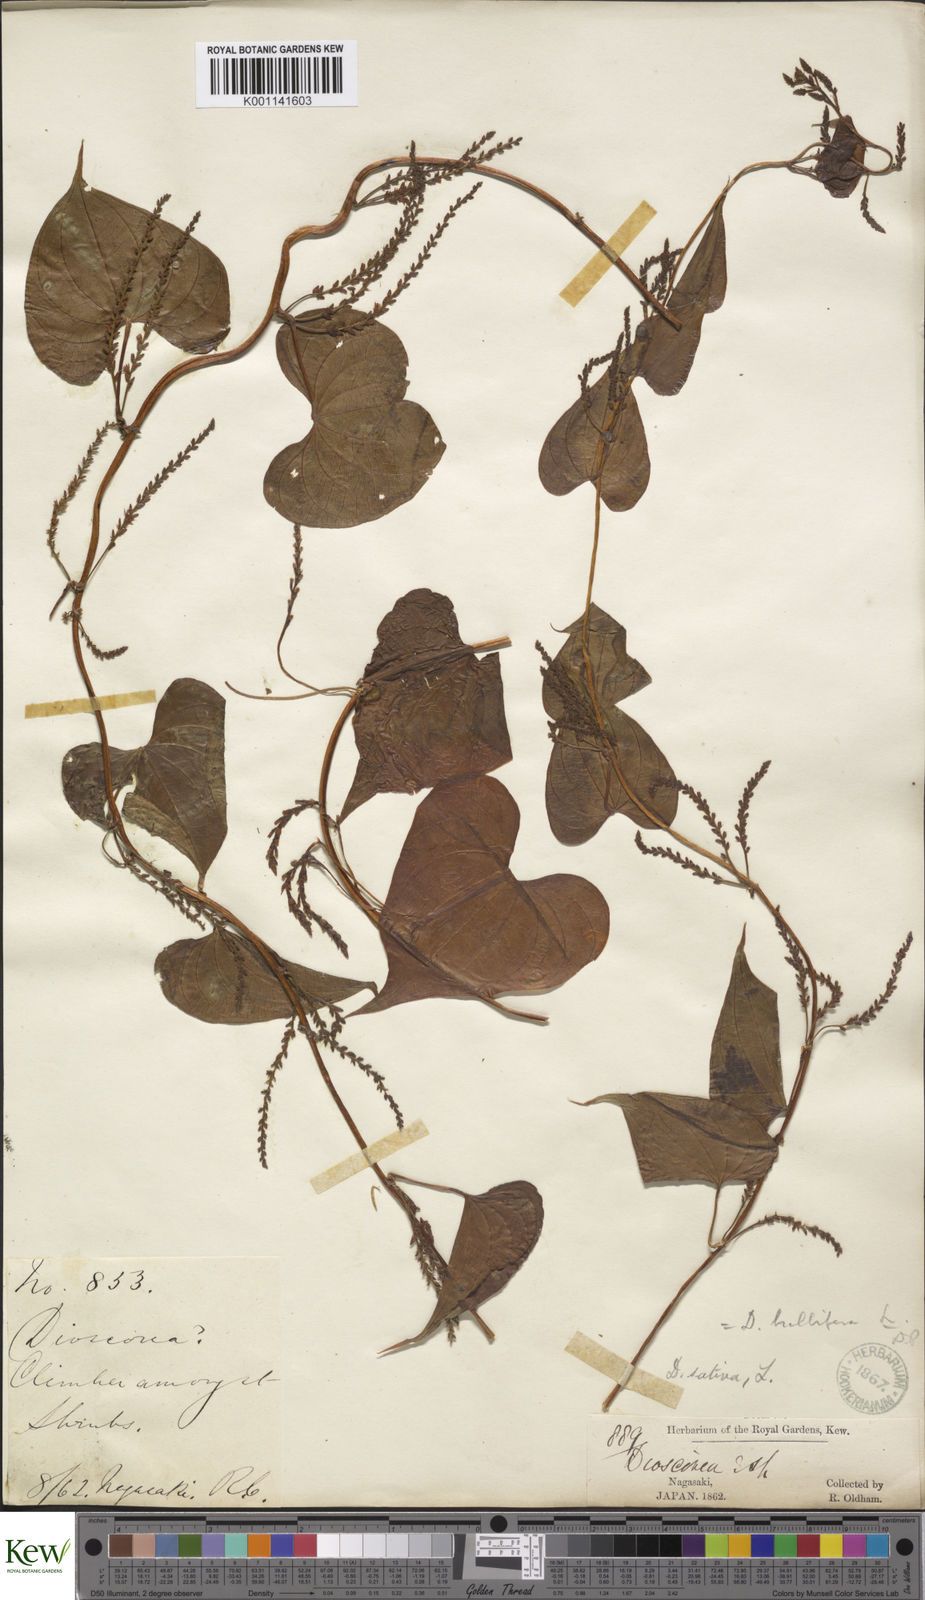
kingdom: Plantae
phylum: Tracheophyta
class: Liliopsida
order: Dioscoreales
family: Dioscoreaceae
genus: Dioscorea
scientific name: Dioscorea bulbifera
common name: Air yam
